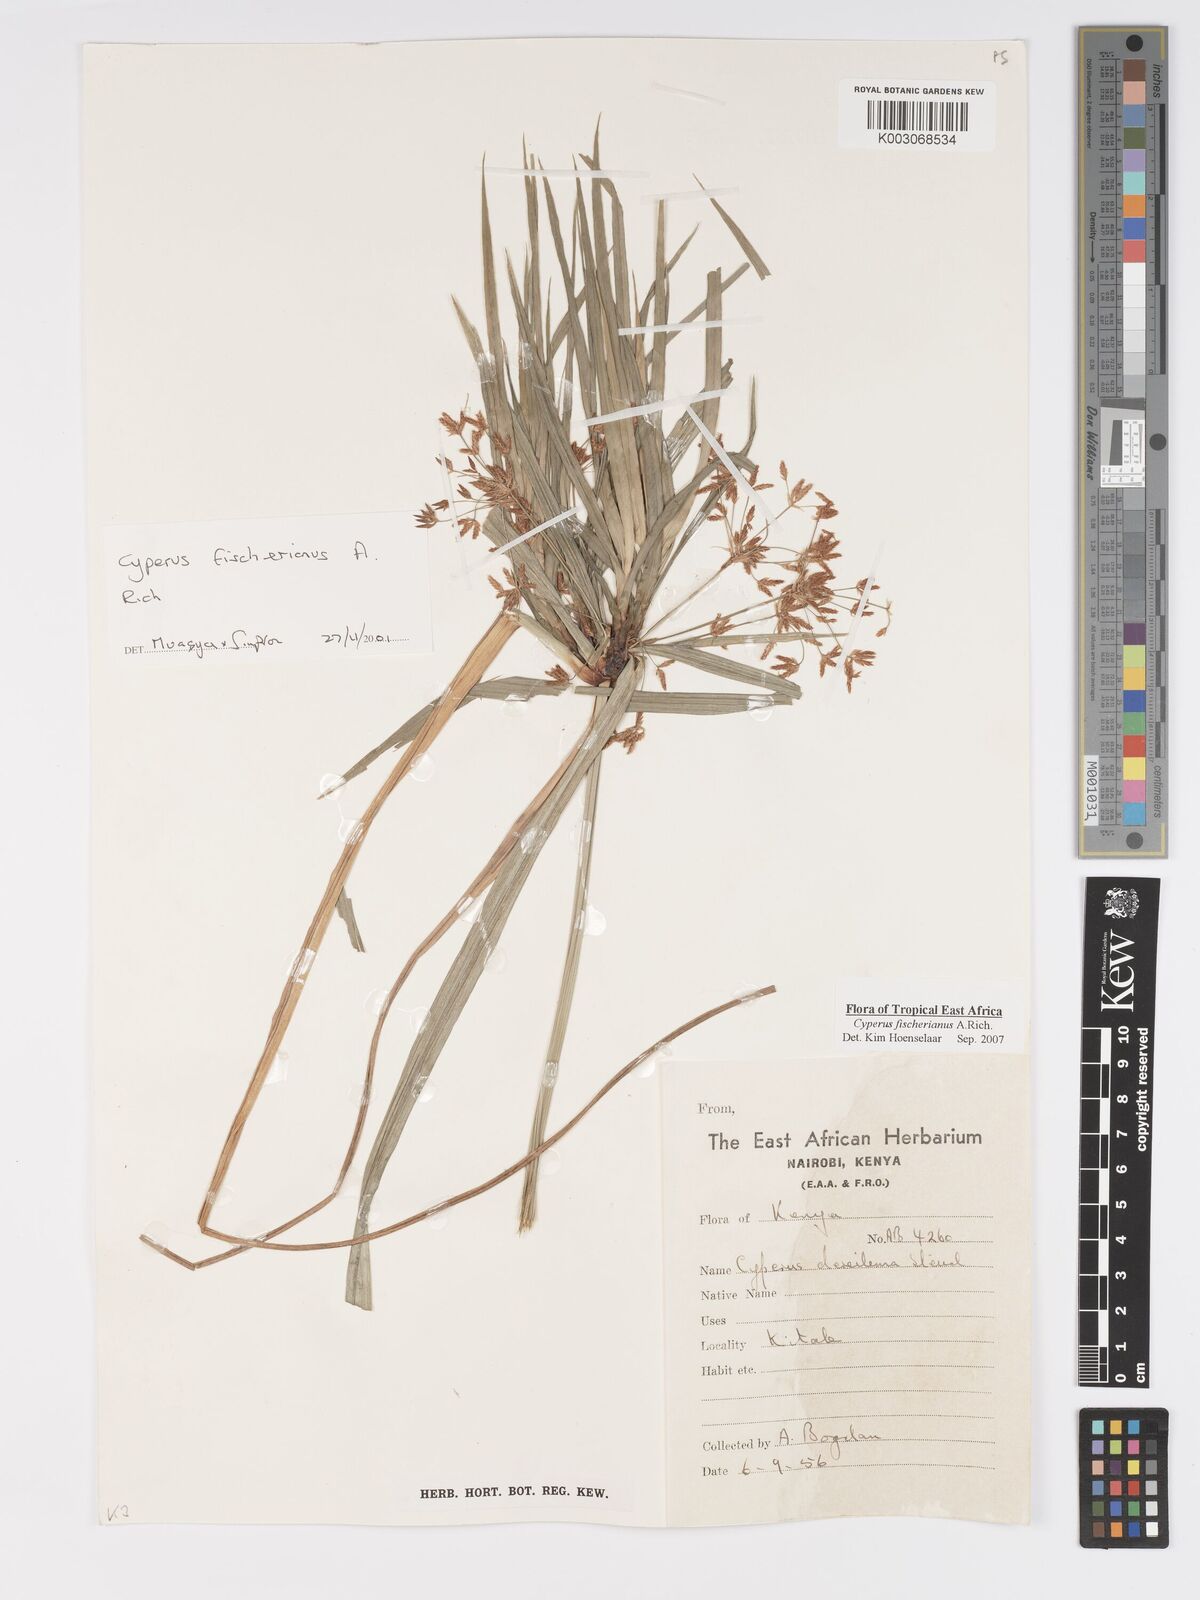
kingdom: Plantae
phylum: Tracheophyta
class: Liliopsida
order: Poales
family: Cyperaceae
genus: Cyperus
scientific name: Cyperus fischerianus
